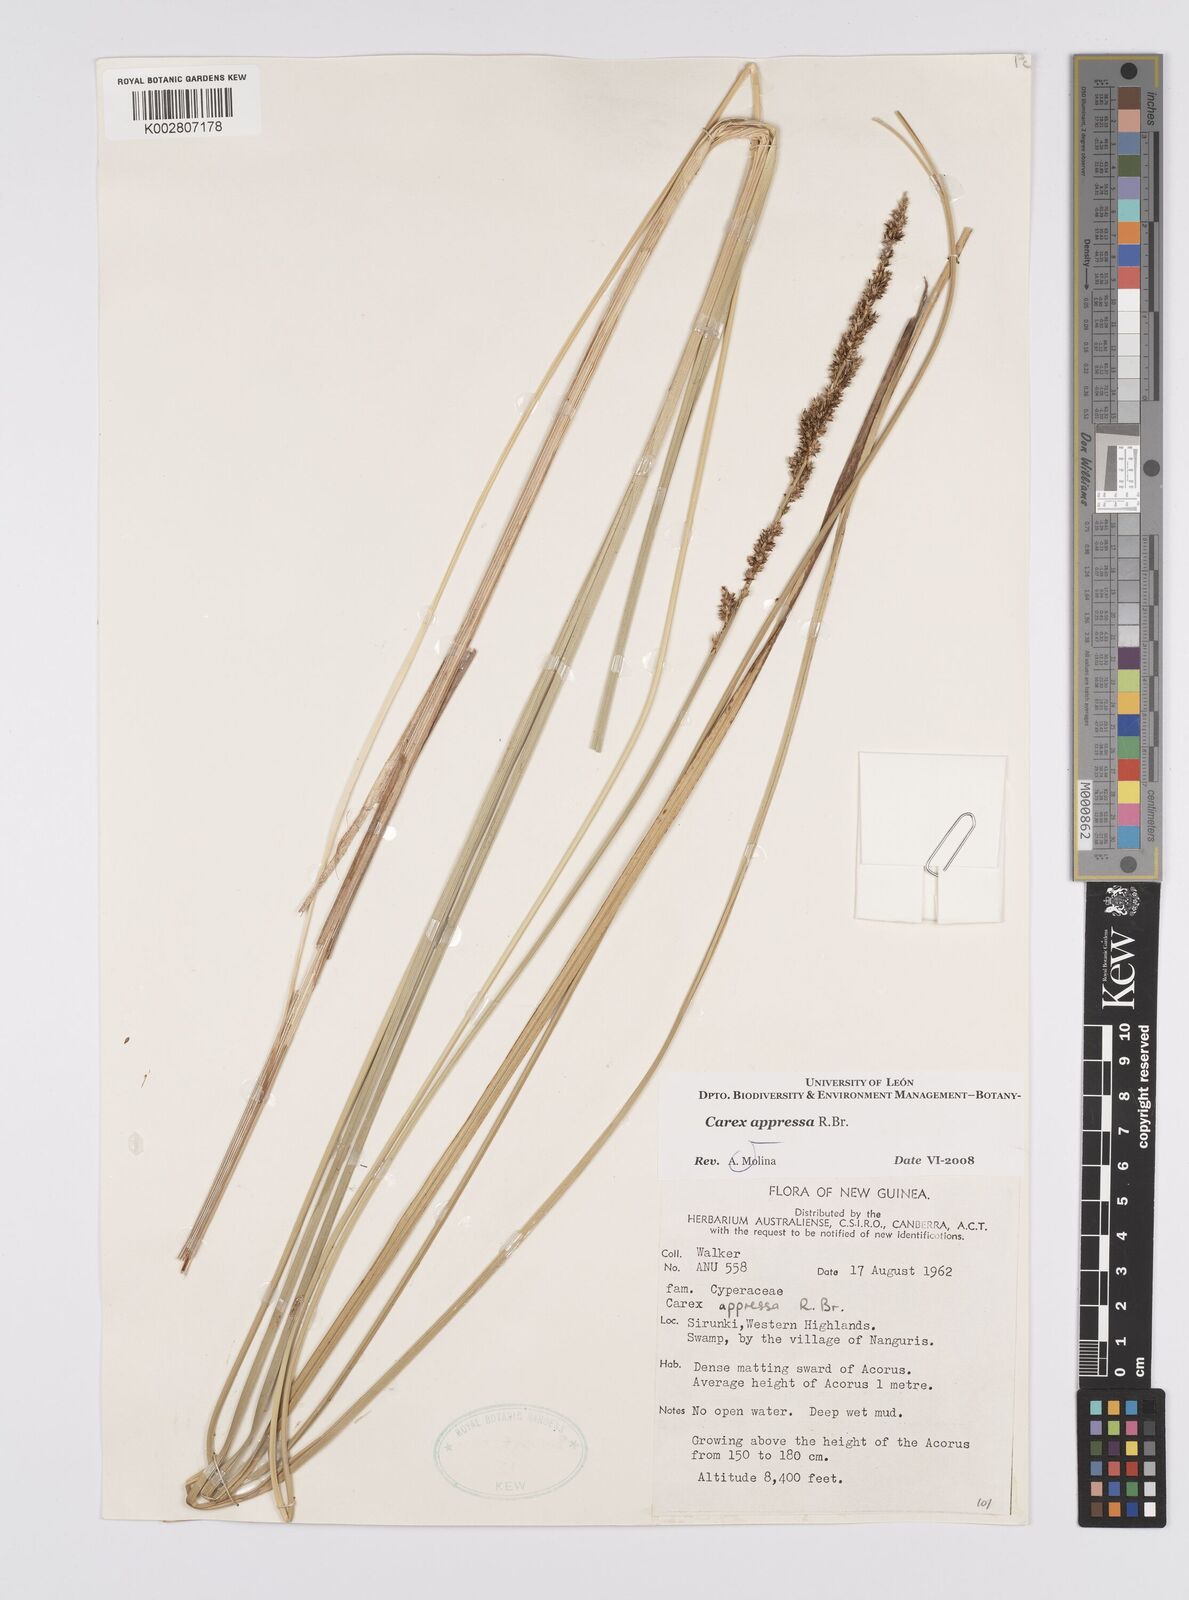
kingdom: Plantae
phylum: Tracheophyta
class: Liliopsida
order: Poales
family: Cyperaceae
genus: Carex
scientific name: Carex appressa
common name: Tussock sedge
